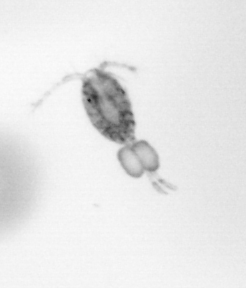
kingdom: Animalia
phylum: Arthropoda
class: Copepoda
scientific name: Copepoda
